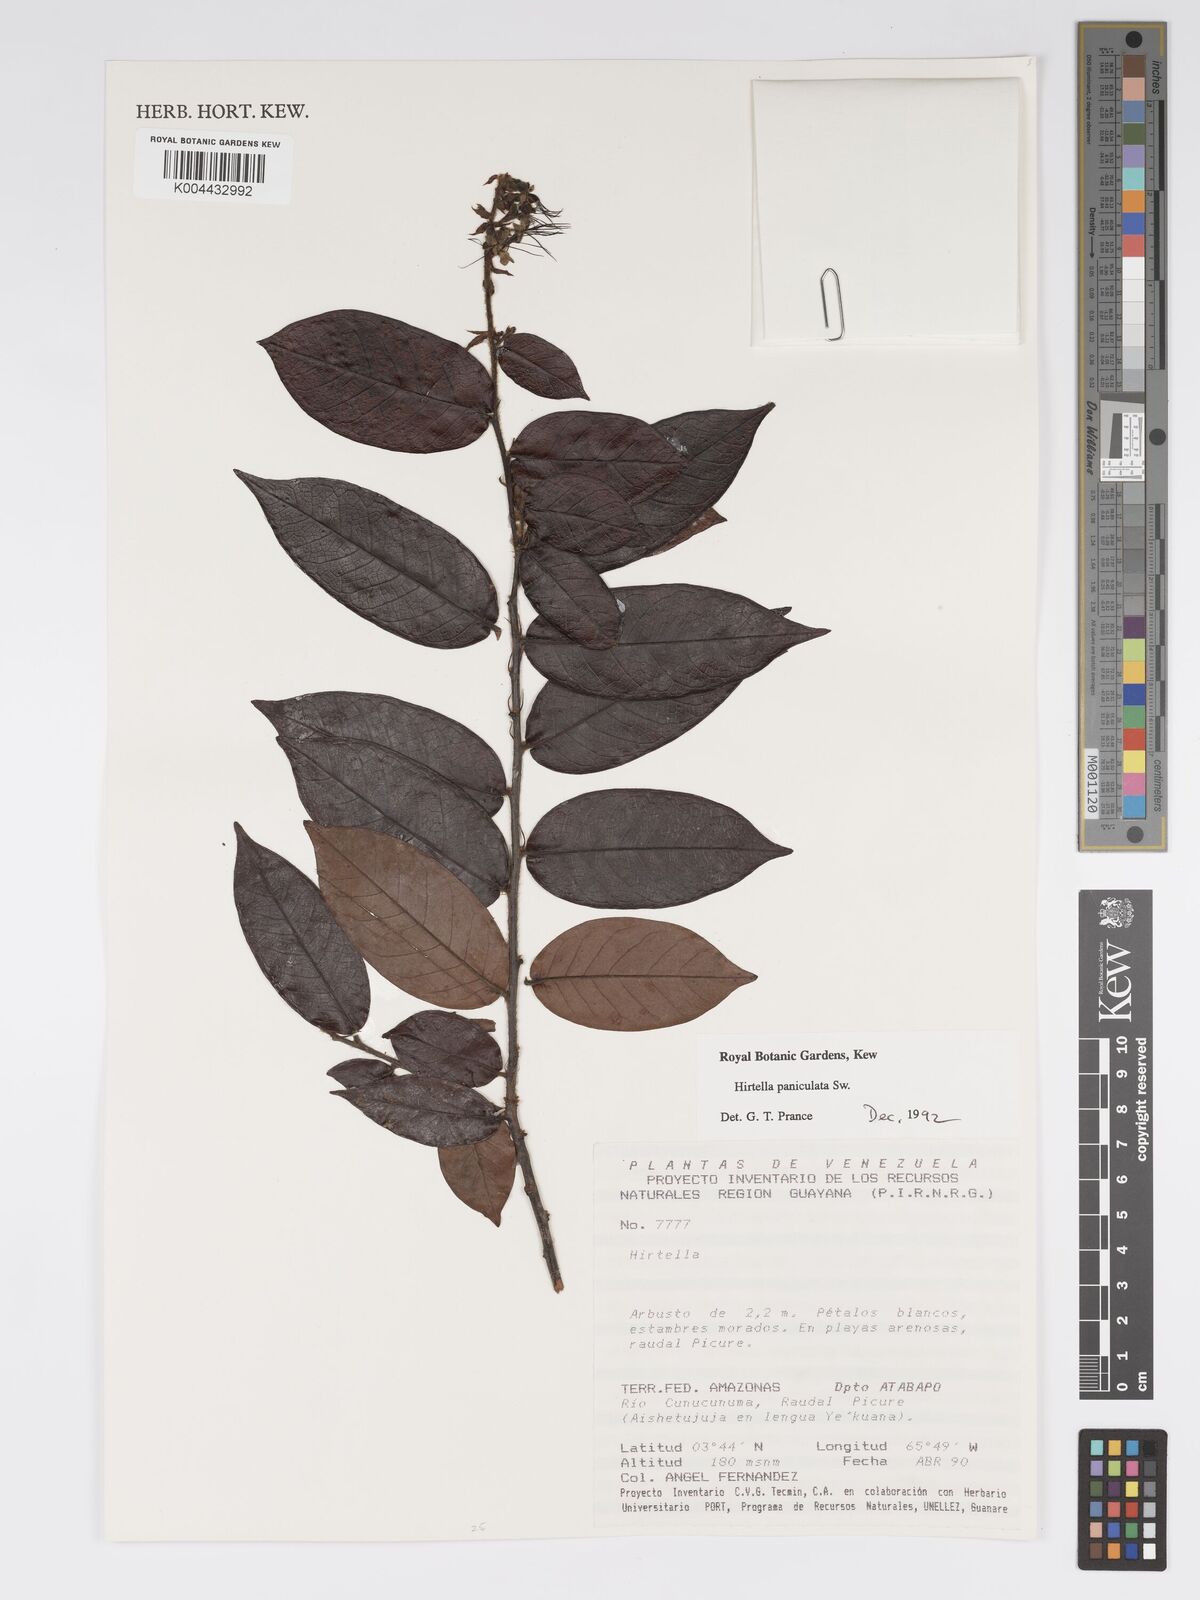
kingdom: Plantae
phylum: Tracheophyta
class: Magnoliopsida
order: Malpighiales
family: Chrysobalanaceae
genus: Hirtella
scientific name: Hirtella
